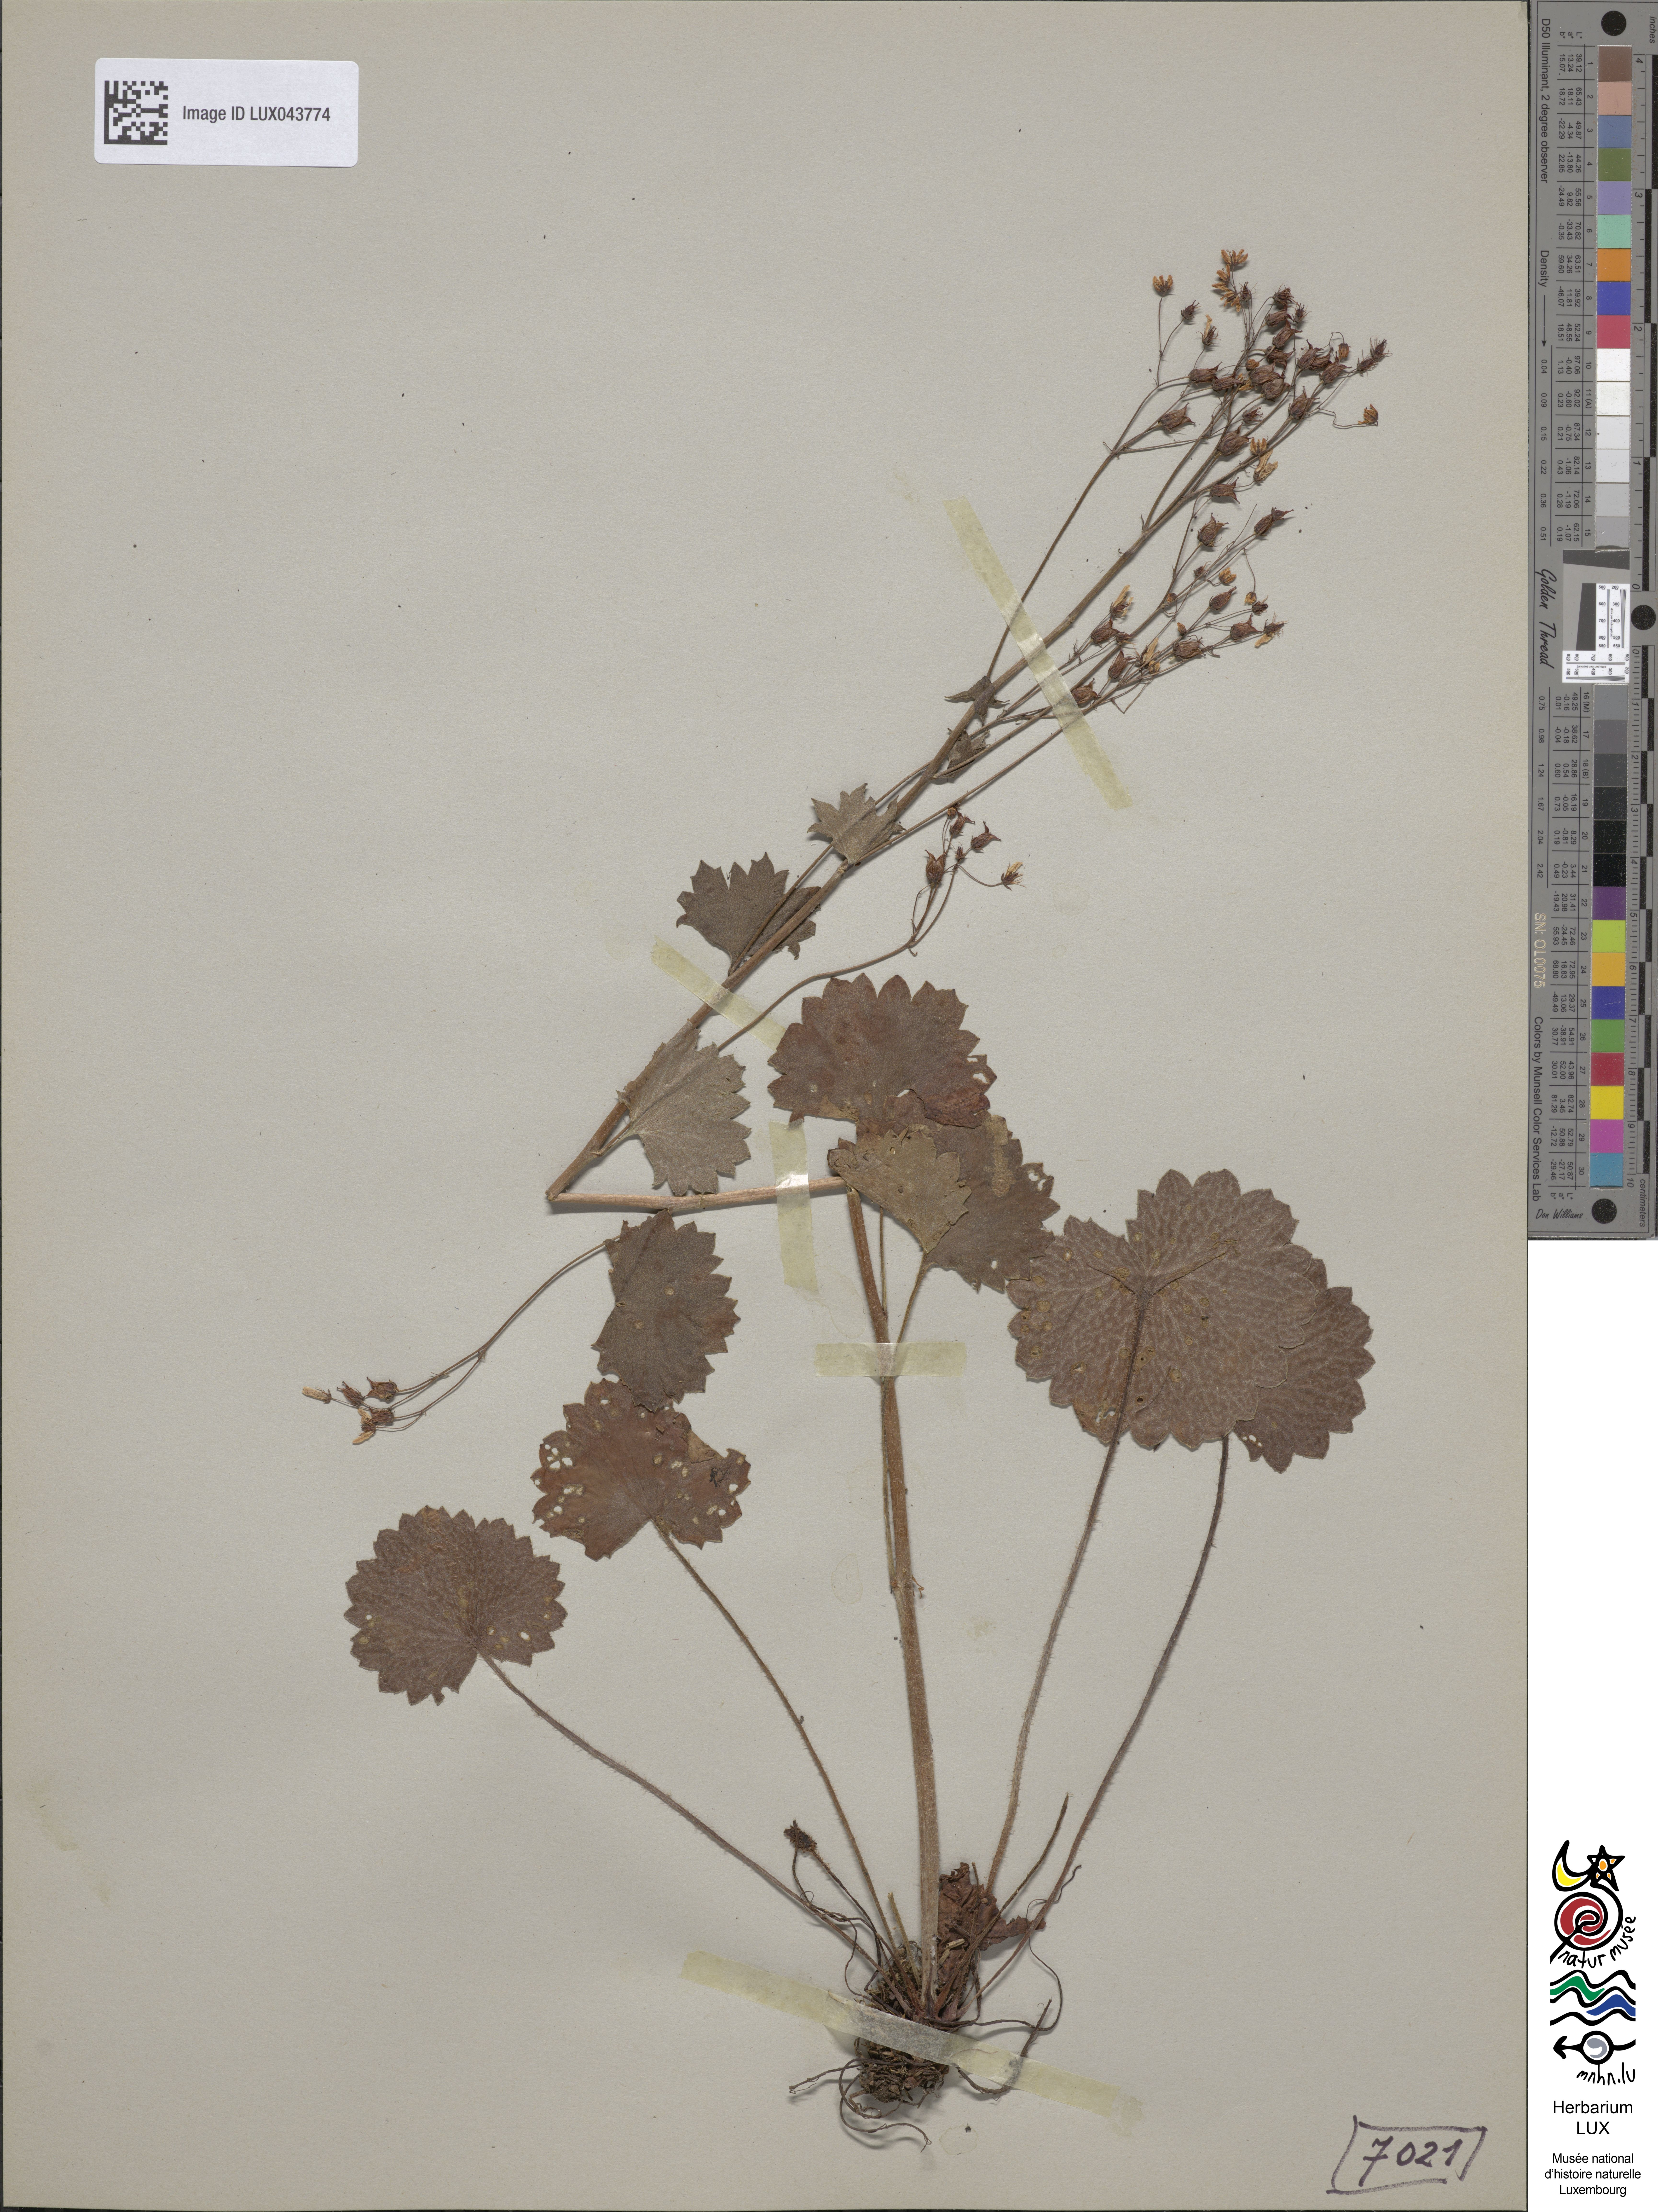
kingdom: Plantae
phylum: Tracheophyta
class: Magnoliopsida
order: Saxifragales
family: Saxifragaceae
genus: Saxifraga
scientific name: Saxifraga rotundifolia
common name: Round-leaved saxifrage
